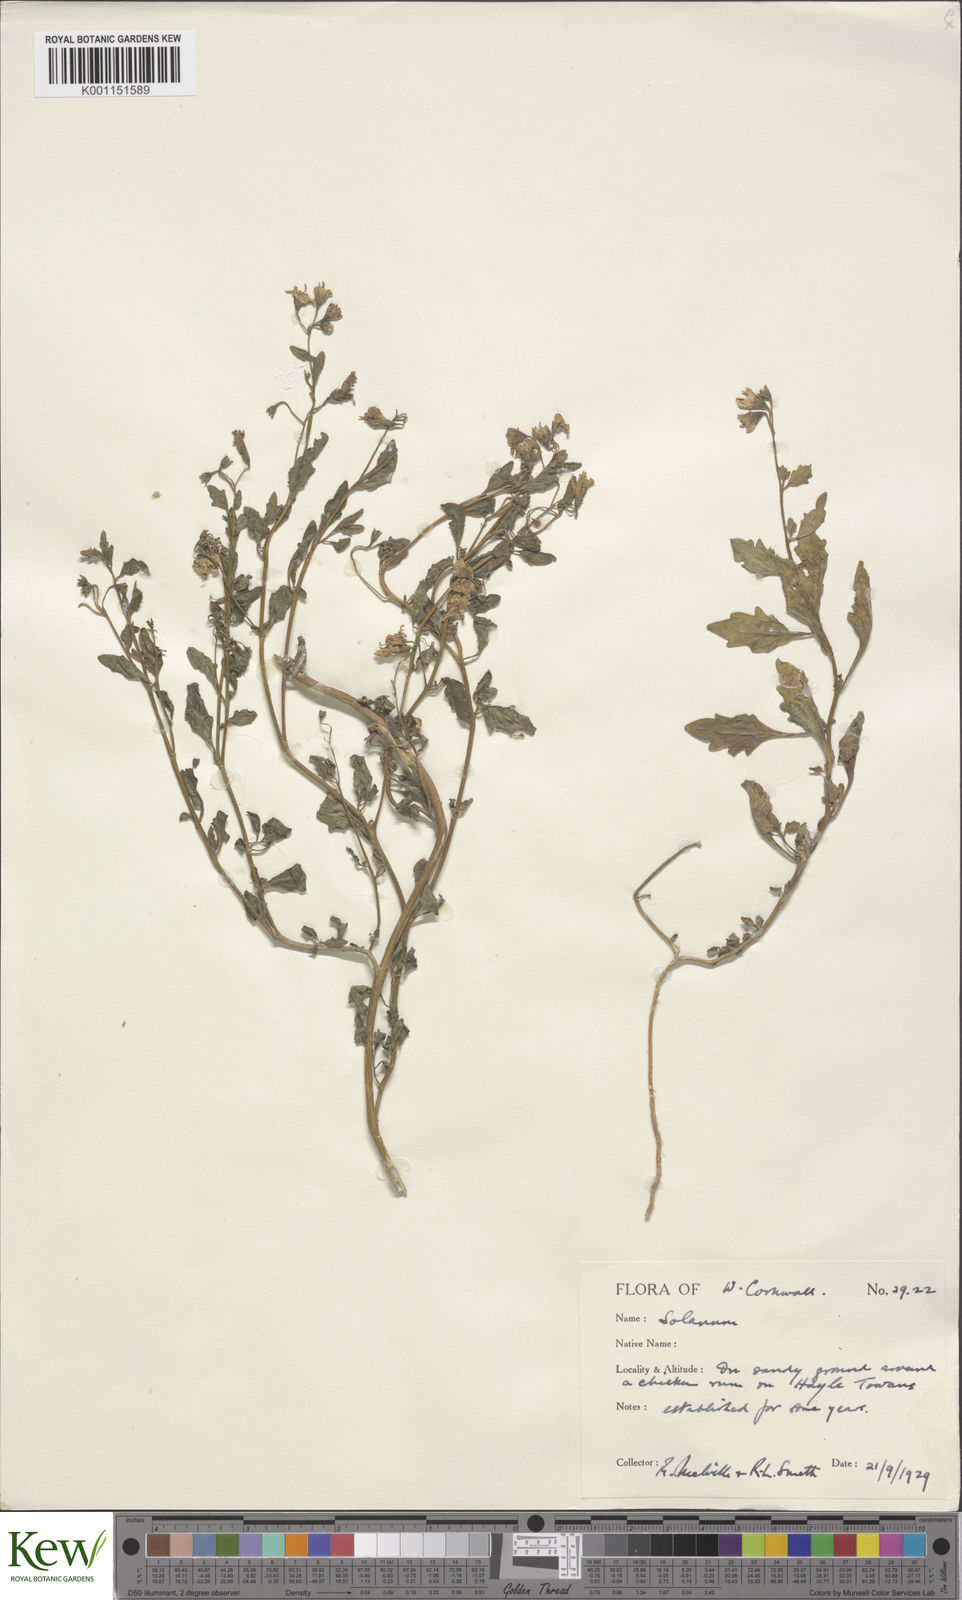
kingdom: Plantae
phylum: Tracheophyta
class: Magnoliopsida
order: Solanales
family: Solanaceae
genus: Solanum
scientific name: Solanum pygmaeum
